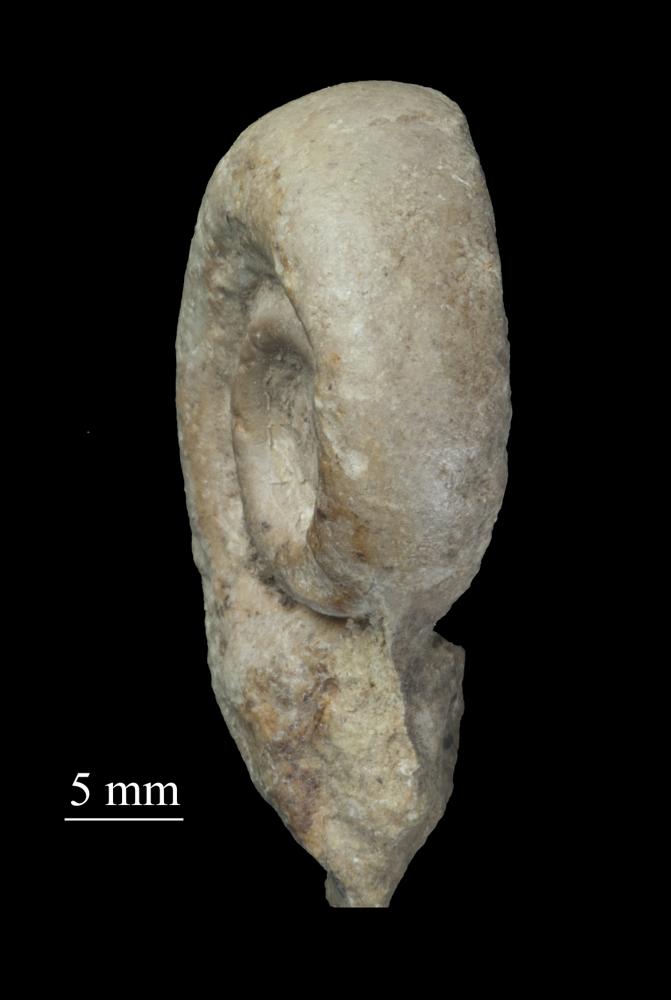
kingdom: Animalia
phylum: Mollusca
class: Gastropoda
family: Lesueurillidae
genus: Mestoronema
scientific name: Mestoronema Euomphalus marginalis
